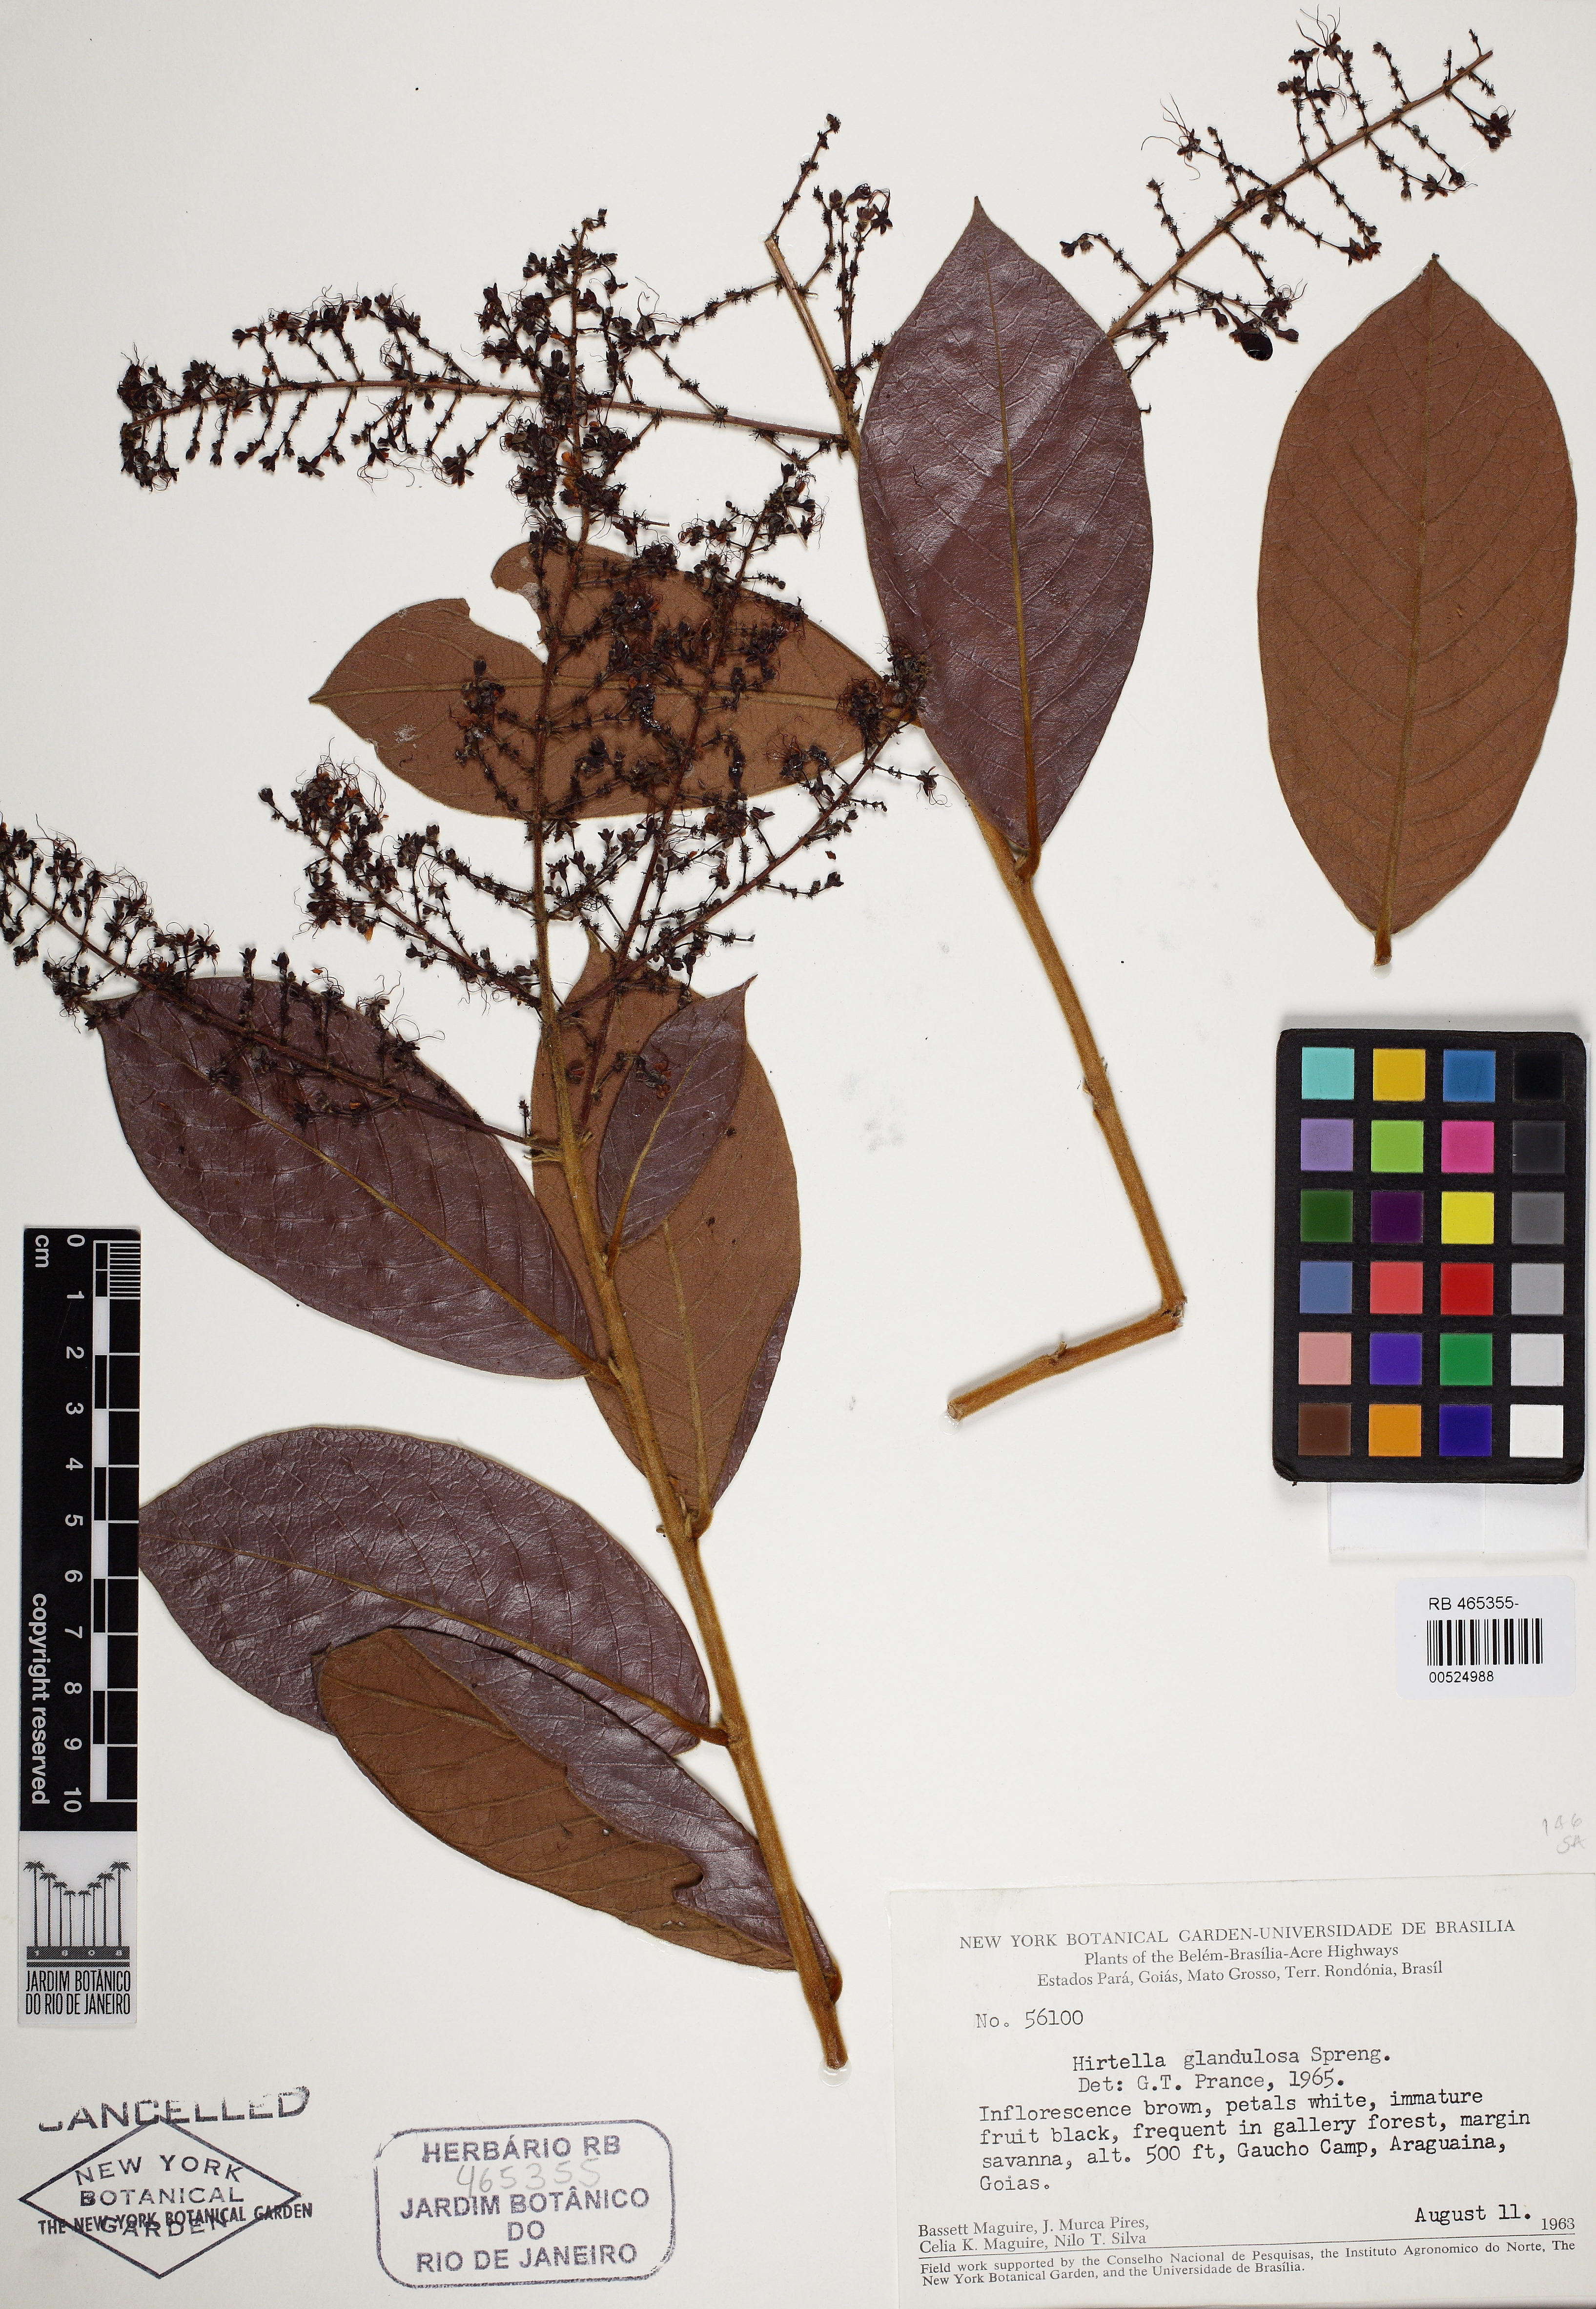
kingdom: Plantae
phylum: Tracheophyta
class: Magnoliopsida
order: Malpighiales
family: Chrysobalanaceae
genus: Hirtella
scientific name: Hirtella glandulosa
